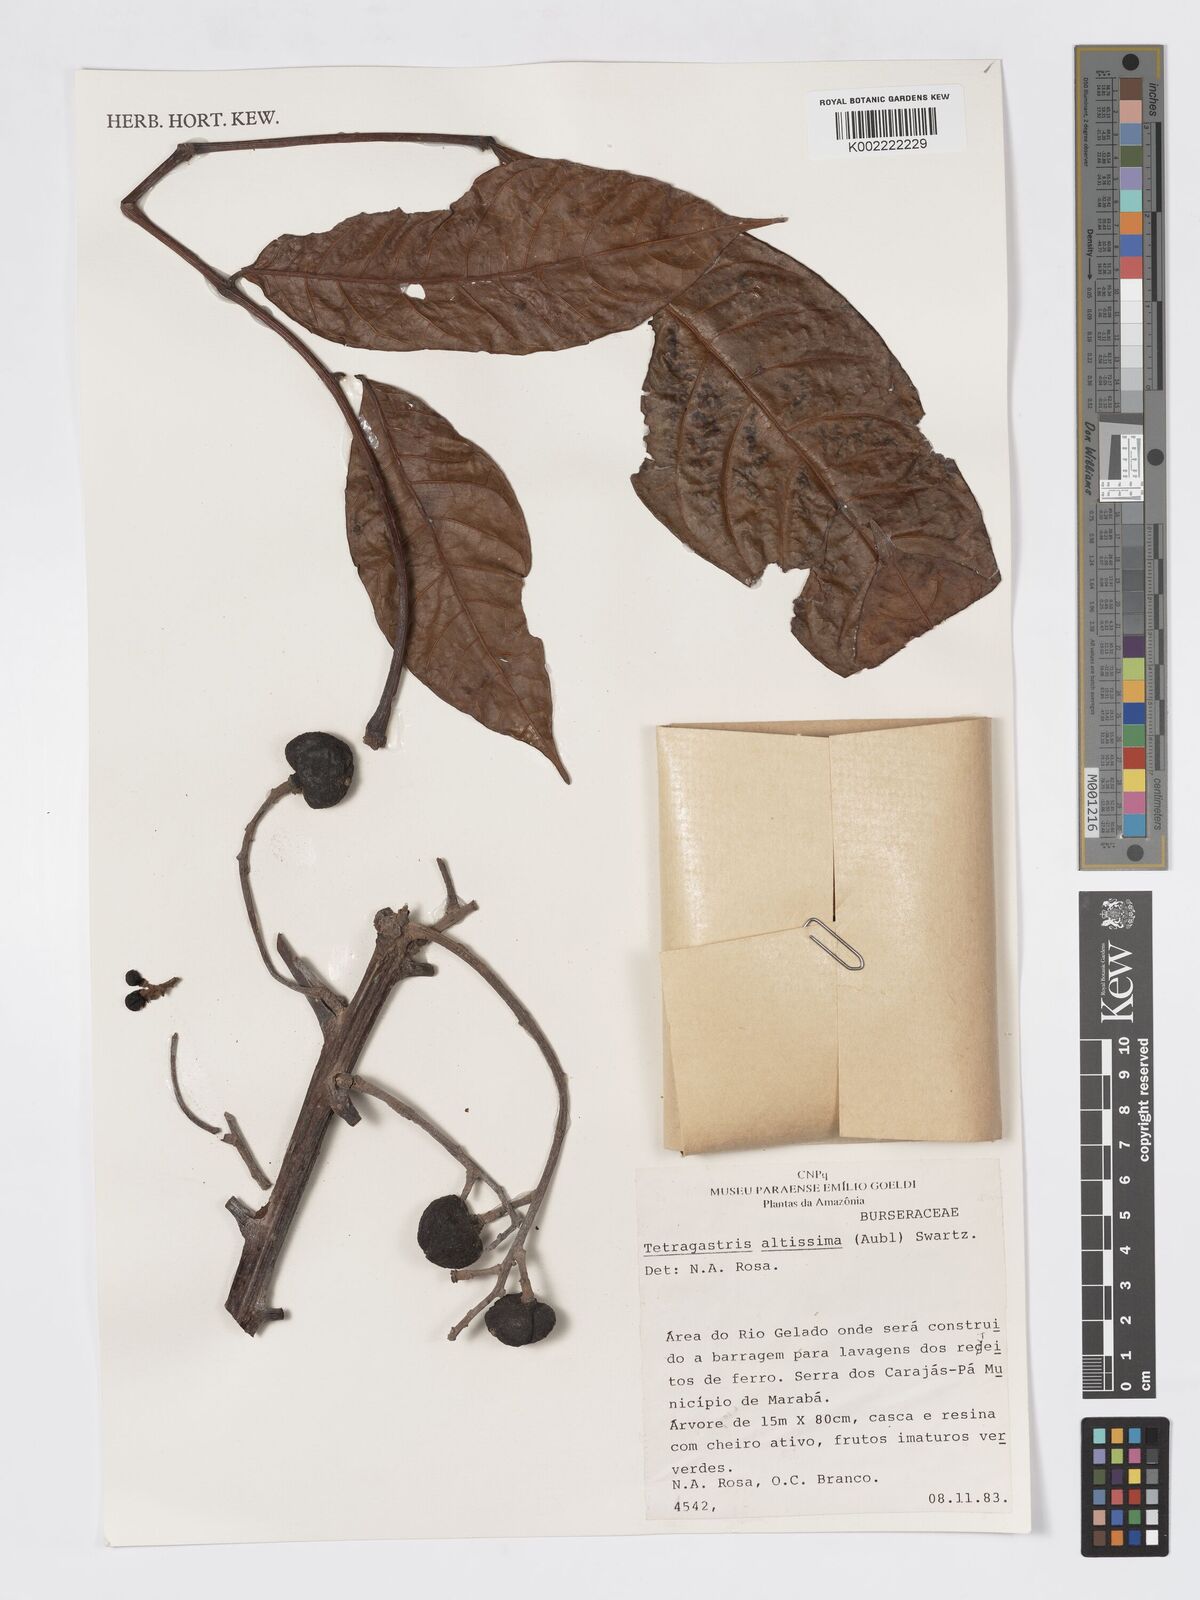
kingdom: Plantae
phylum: Tracheophyta
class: Magnoliopsida
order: Sapindales
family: Burseraceae
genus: Tetragastris
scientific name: Tetragastris altissima
